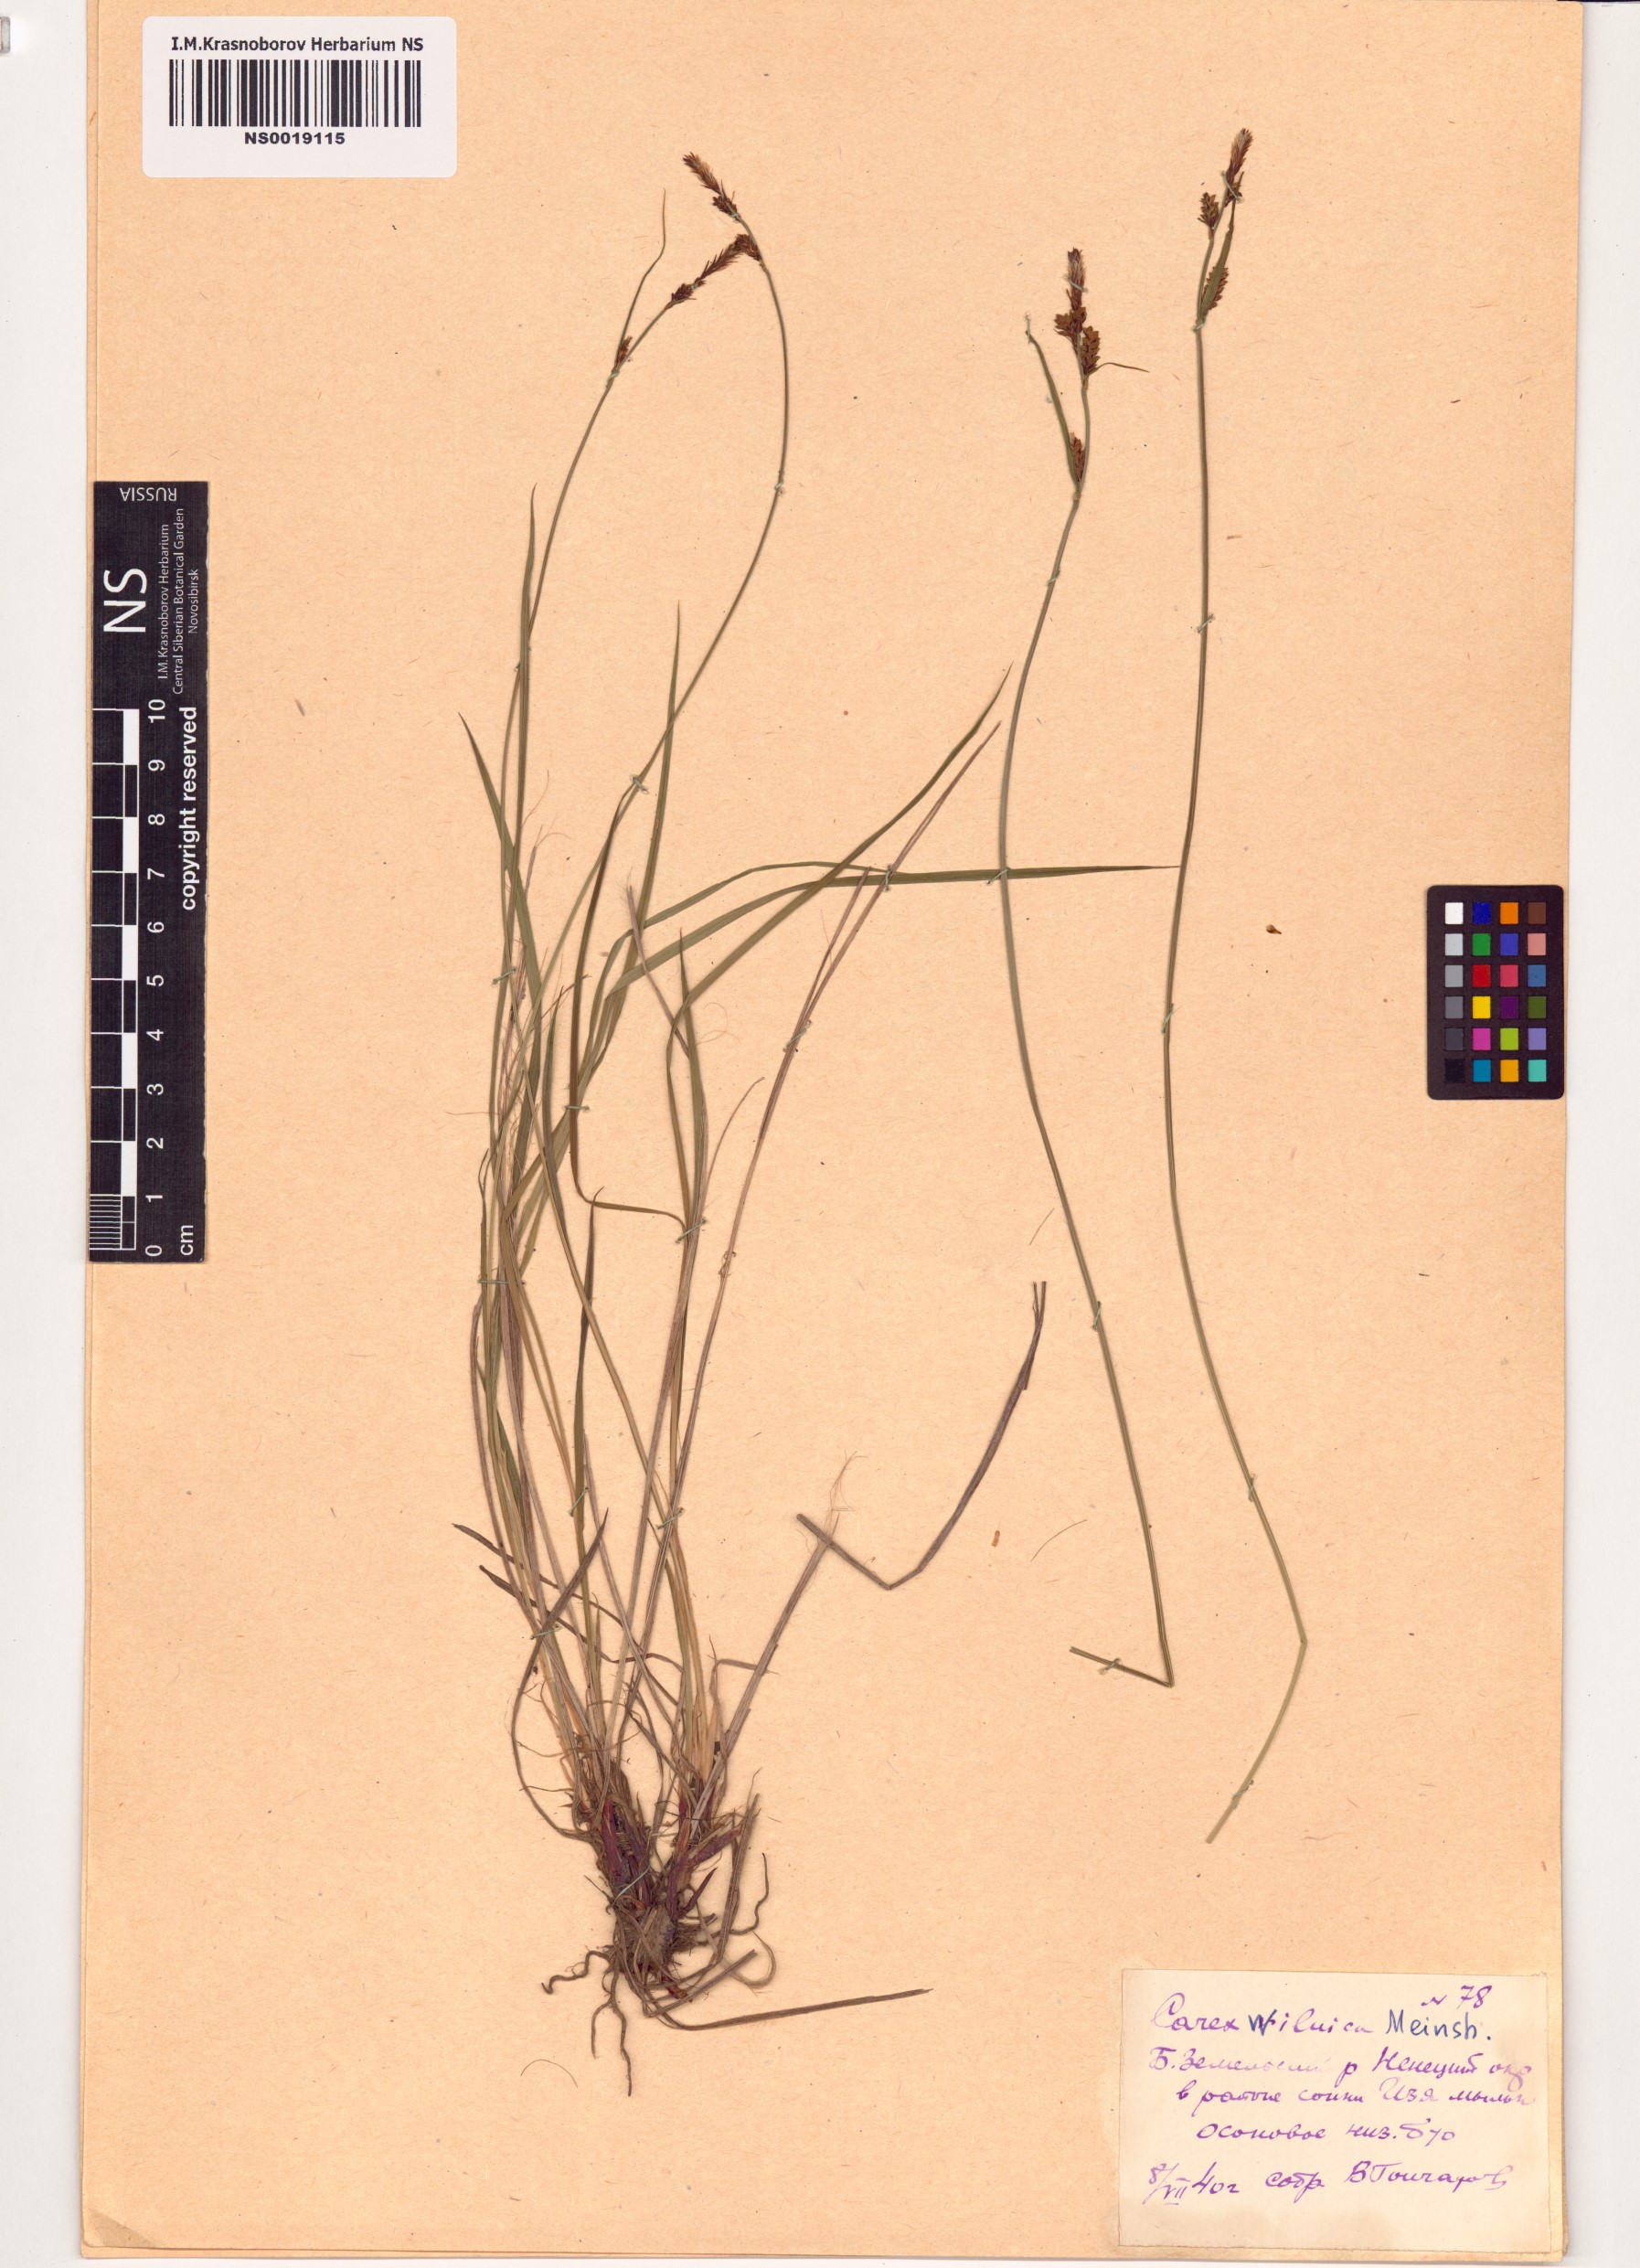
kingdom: Plantae
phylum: Tracheophyta
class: Liliopsida
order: Poales
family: Cyperaceae
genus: Carex
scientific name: Carex nigra
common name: Common sedge
